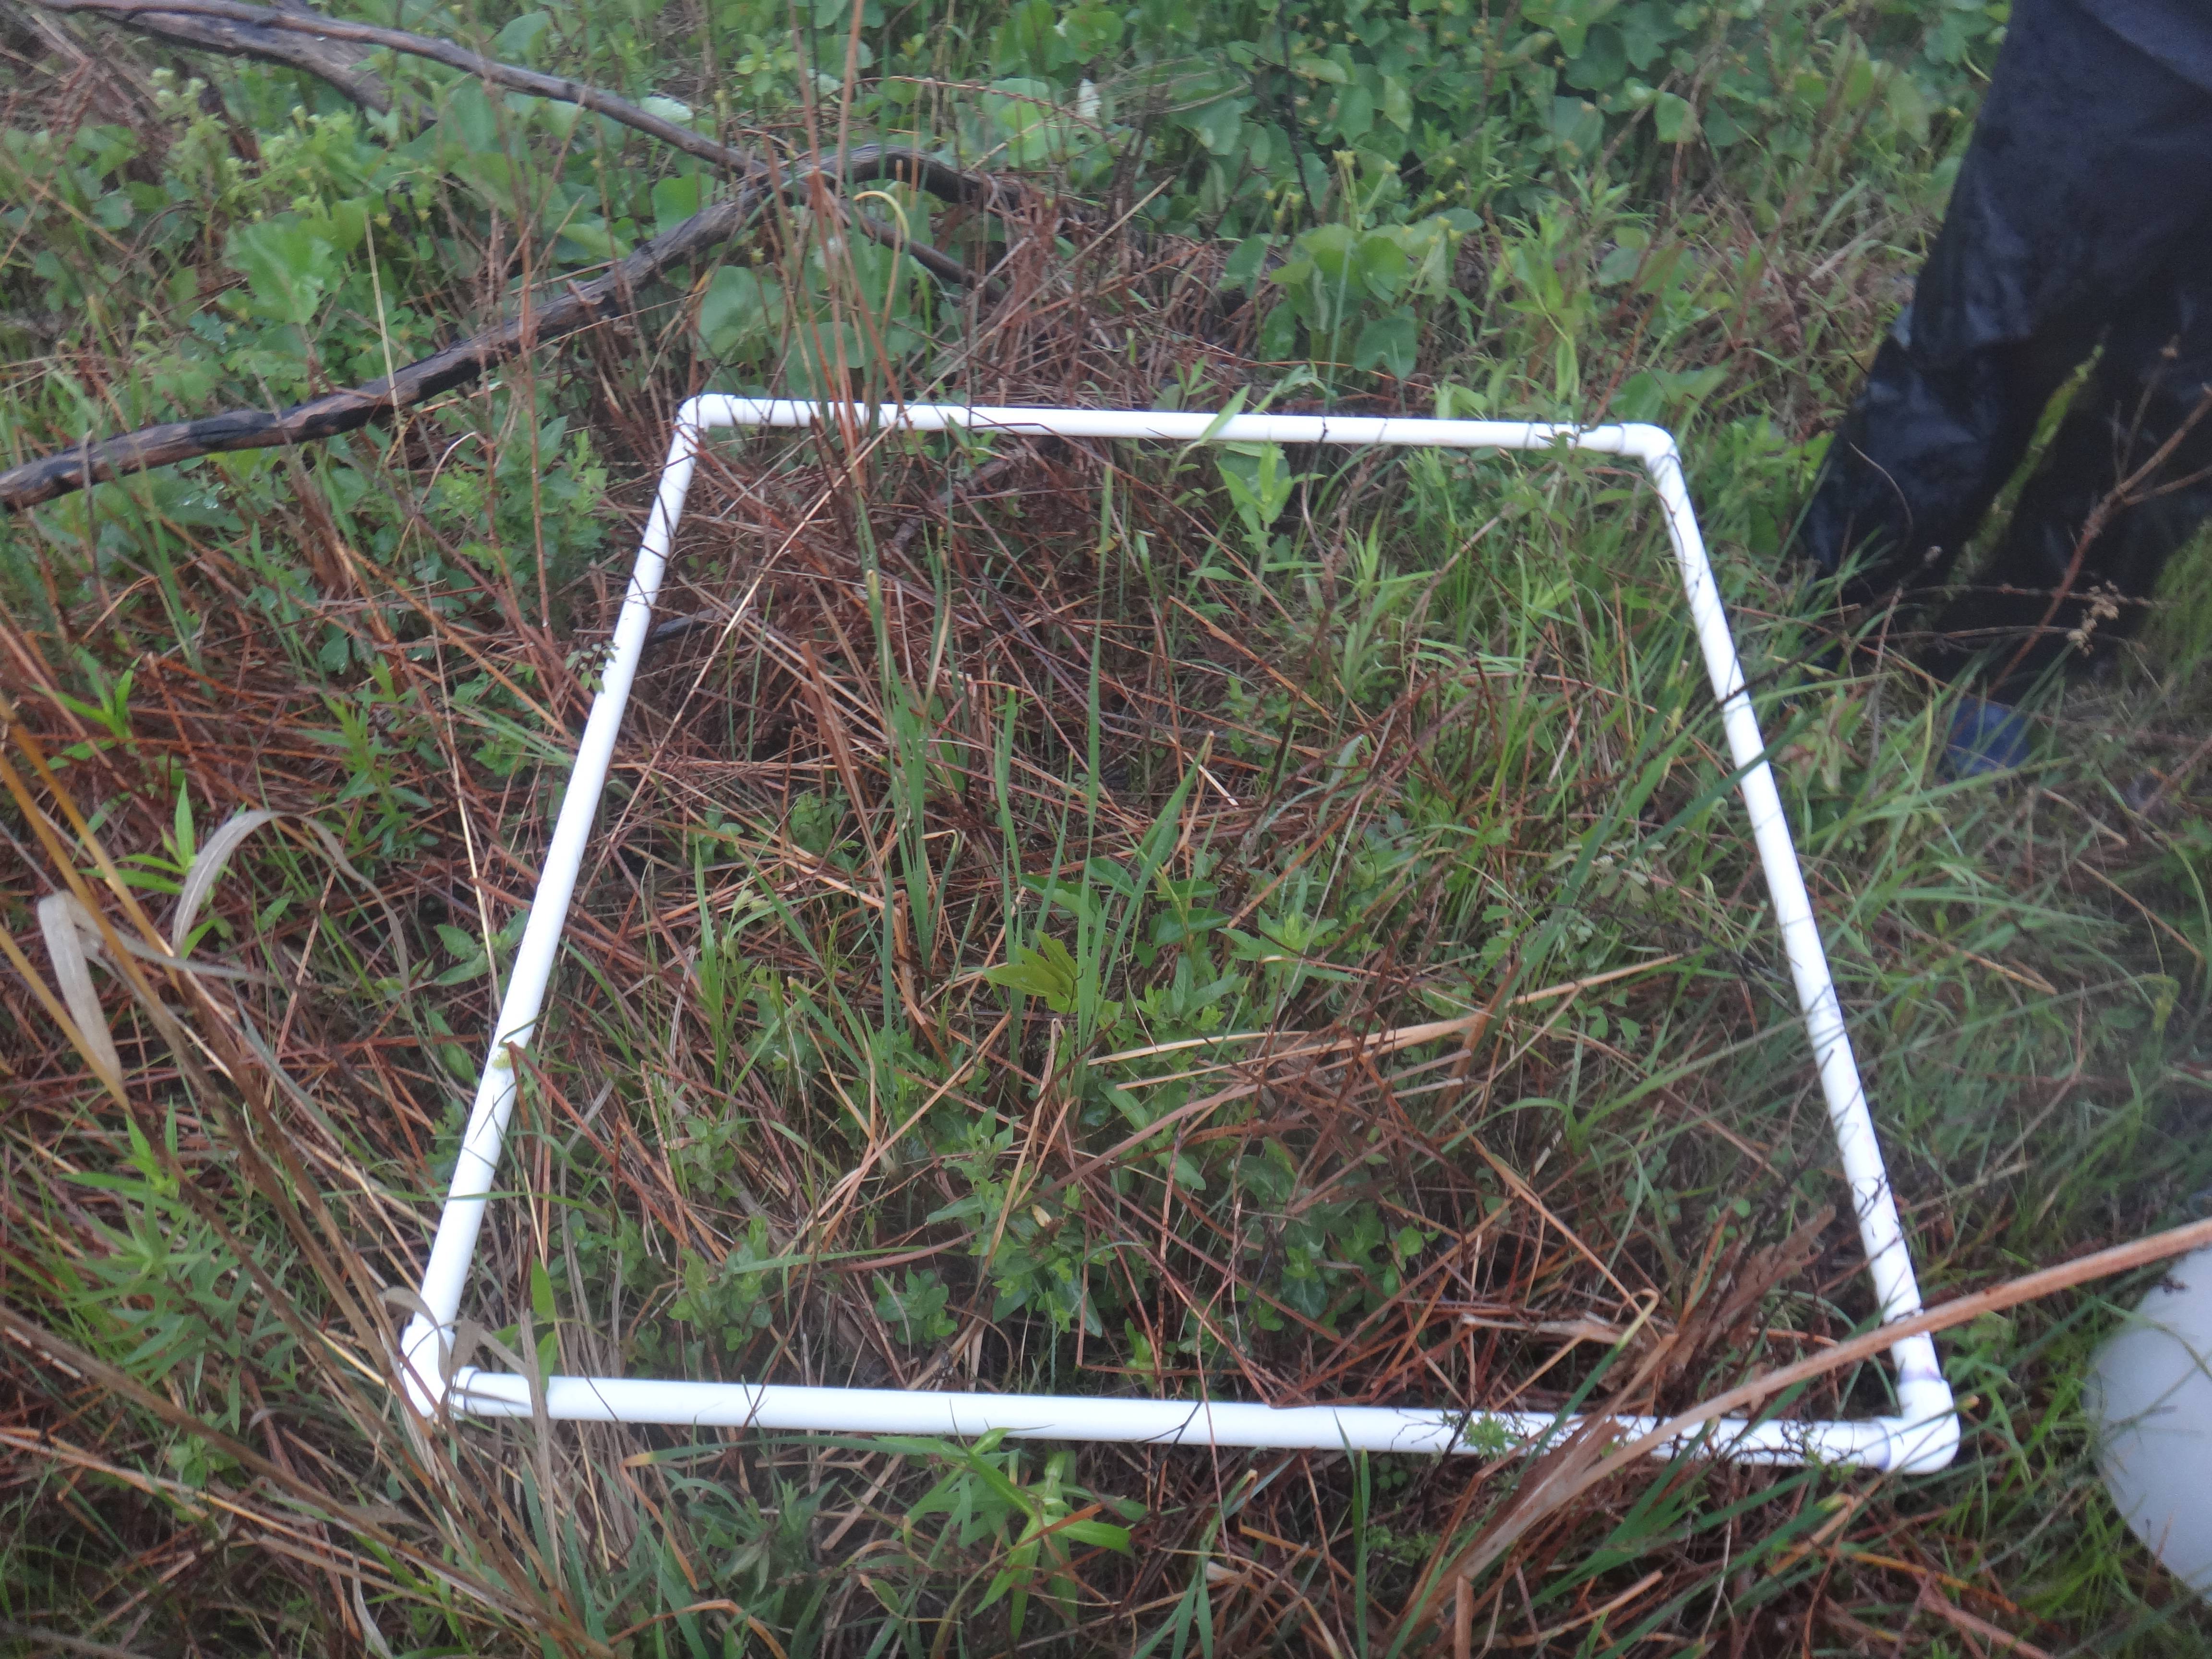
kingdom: Plantae
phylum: Tracheophyta
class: Magnoliopsida
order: Ranunculales
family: Ranunculaceae
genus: Thalictrum
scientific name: Thalictrum dasycarpum
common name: Purple meadow-rue
